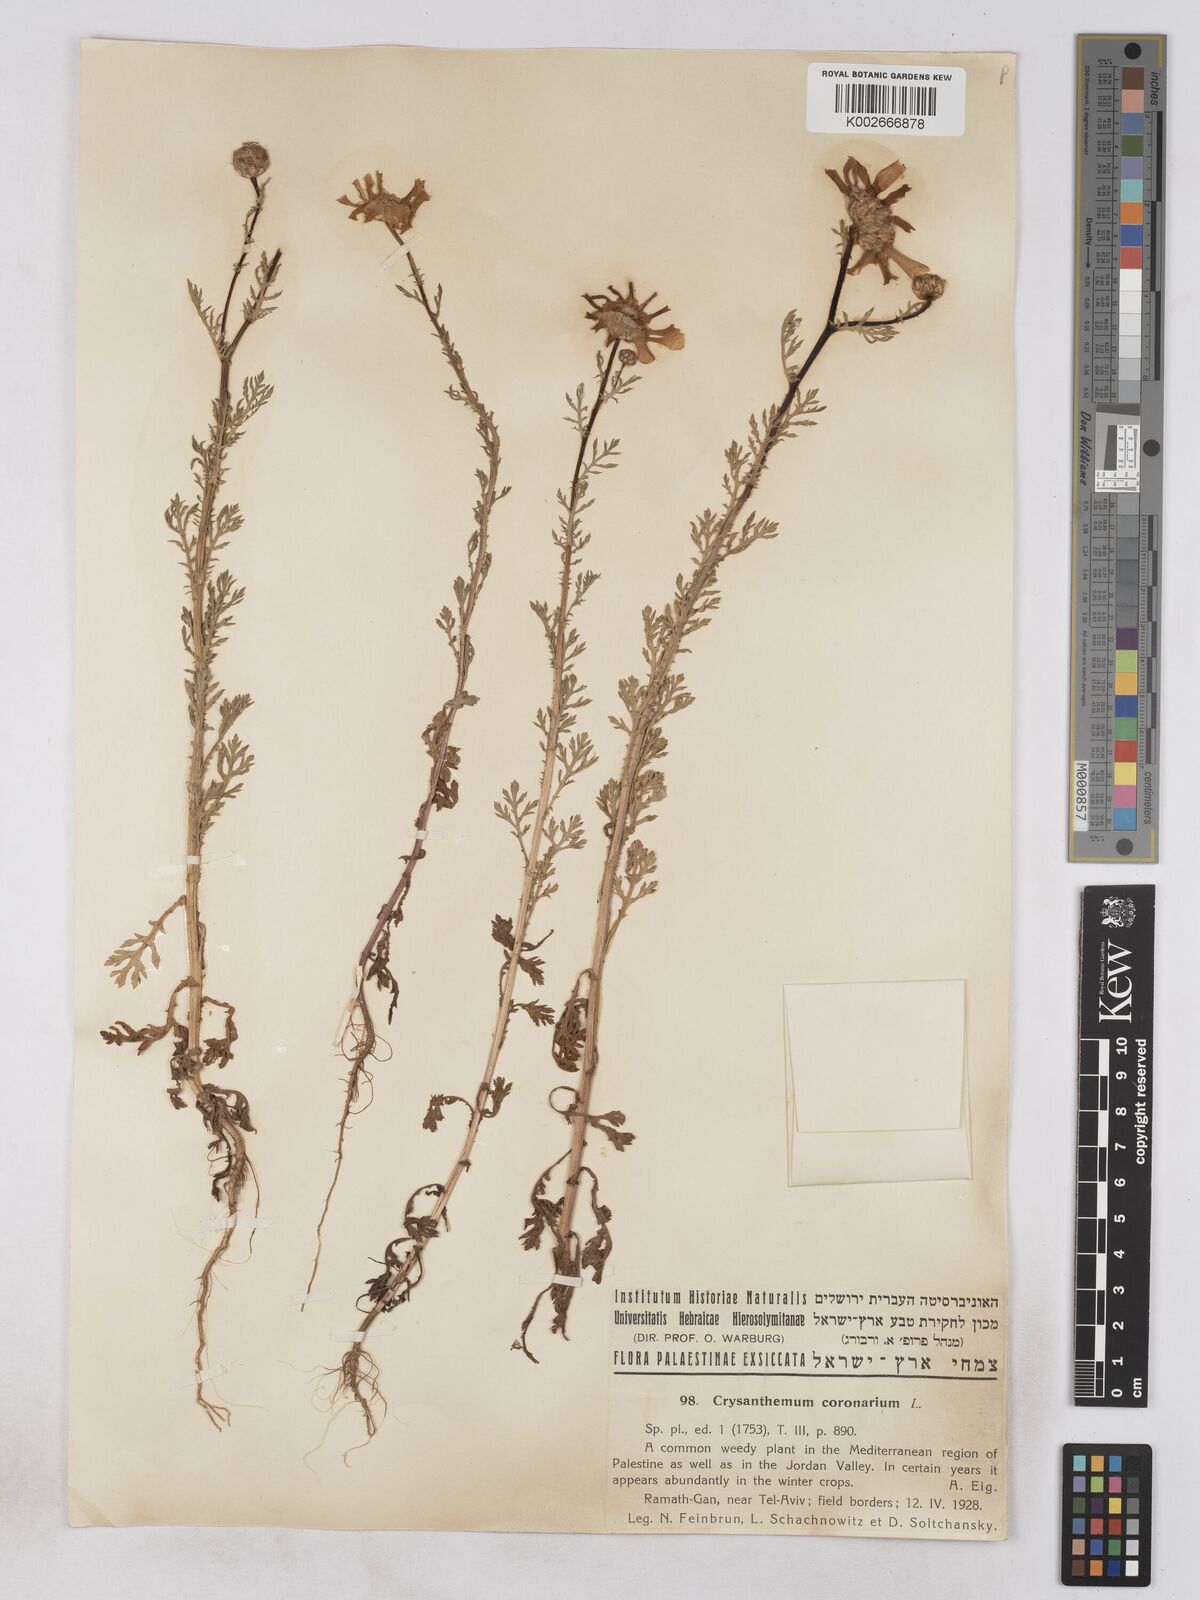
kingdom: Plantae
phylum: Tracheophyta
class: Magnoliopsida
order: Asterales
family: Asteraceae
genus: Glebionis
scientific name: Glebionis coronaria
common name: Crowndaisy
